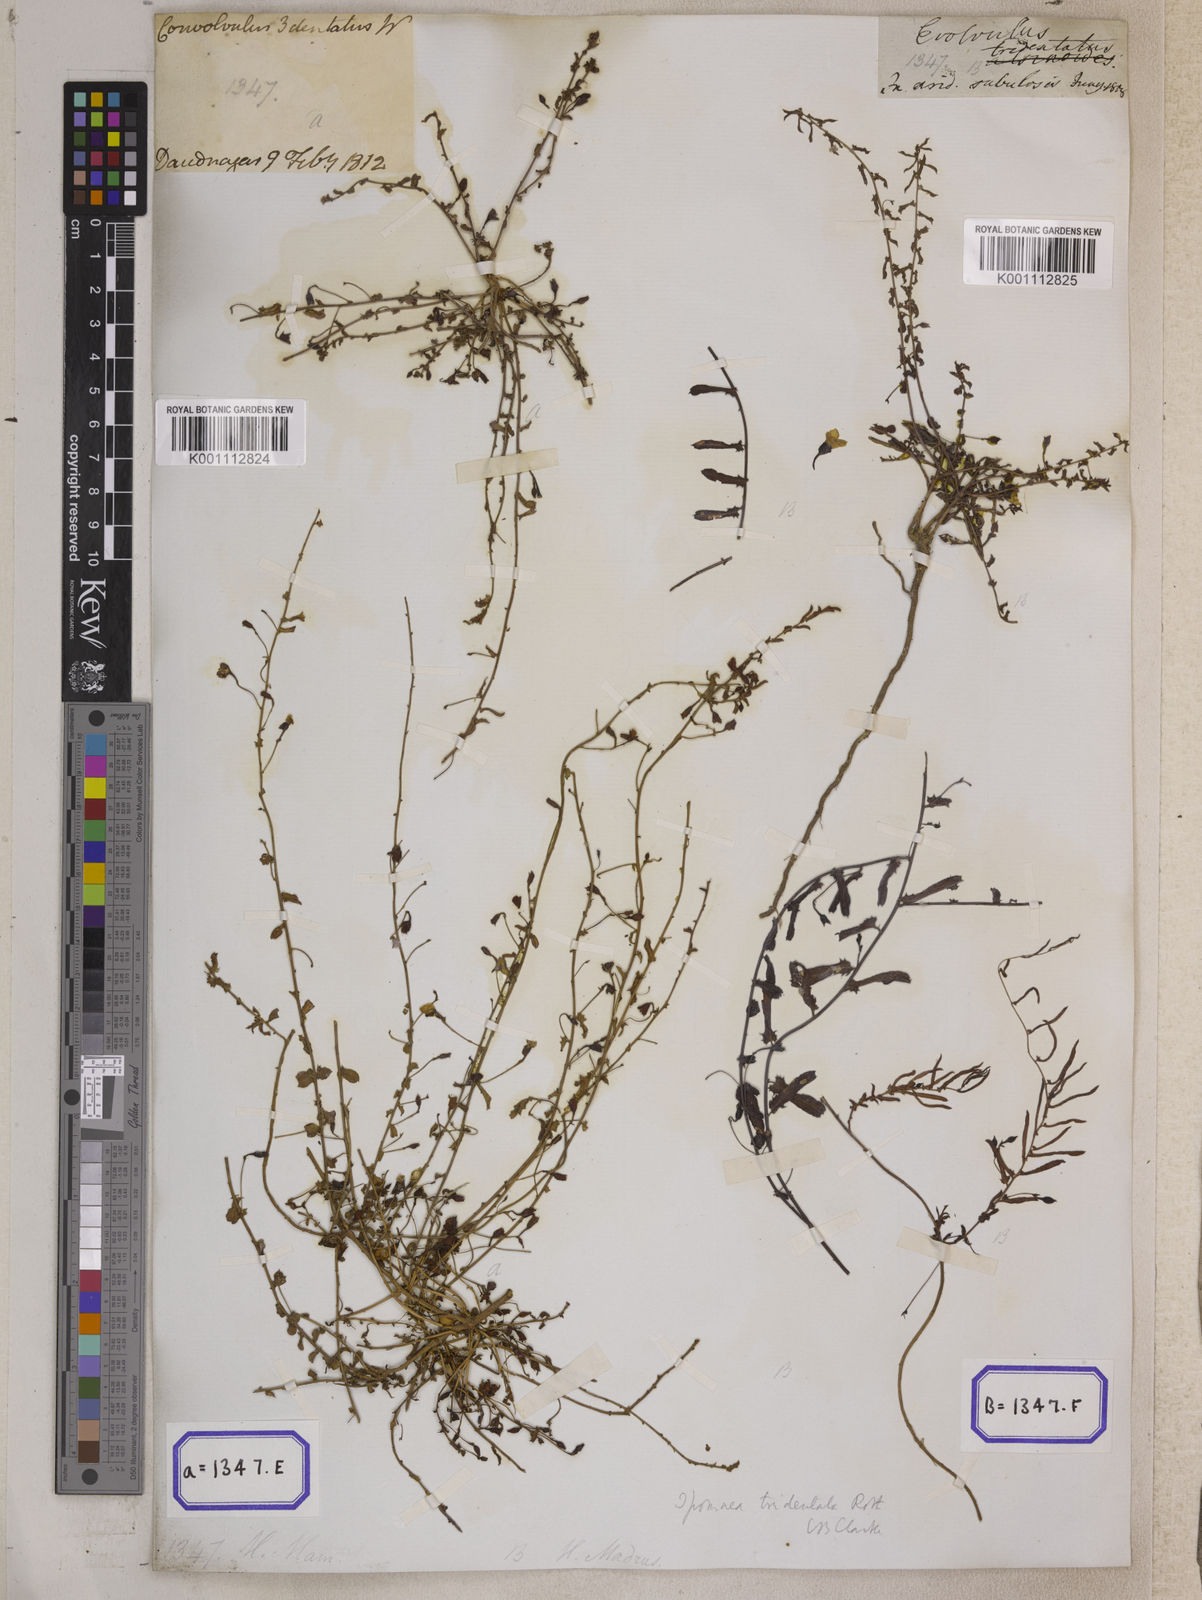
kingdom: Plantae
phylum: Tracheophyta
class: Magnoliopsida
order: Solanales
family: Convolvulaceae
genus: Xenostegia
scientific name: Xenostegia tridentata
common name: African morningvine
